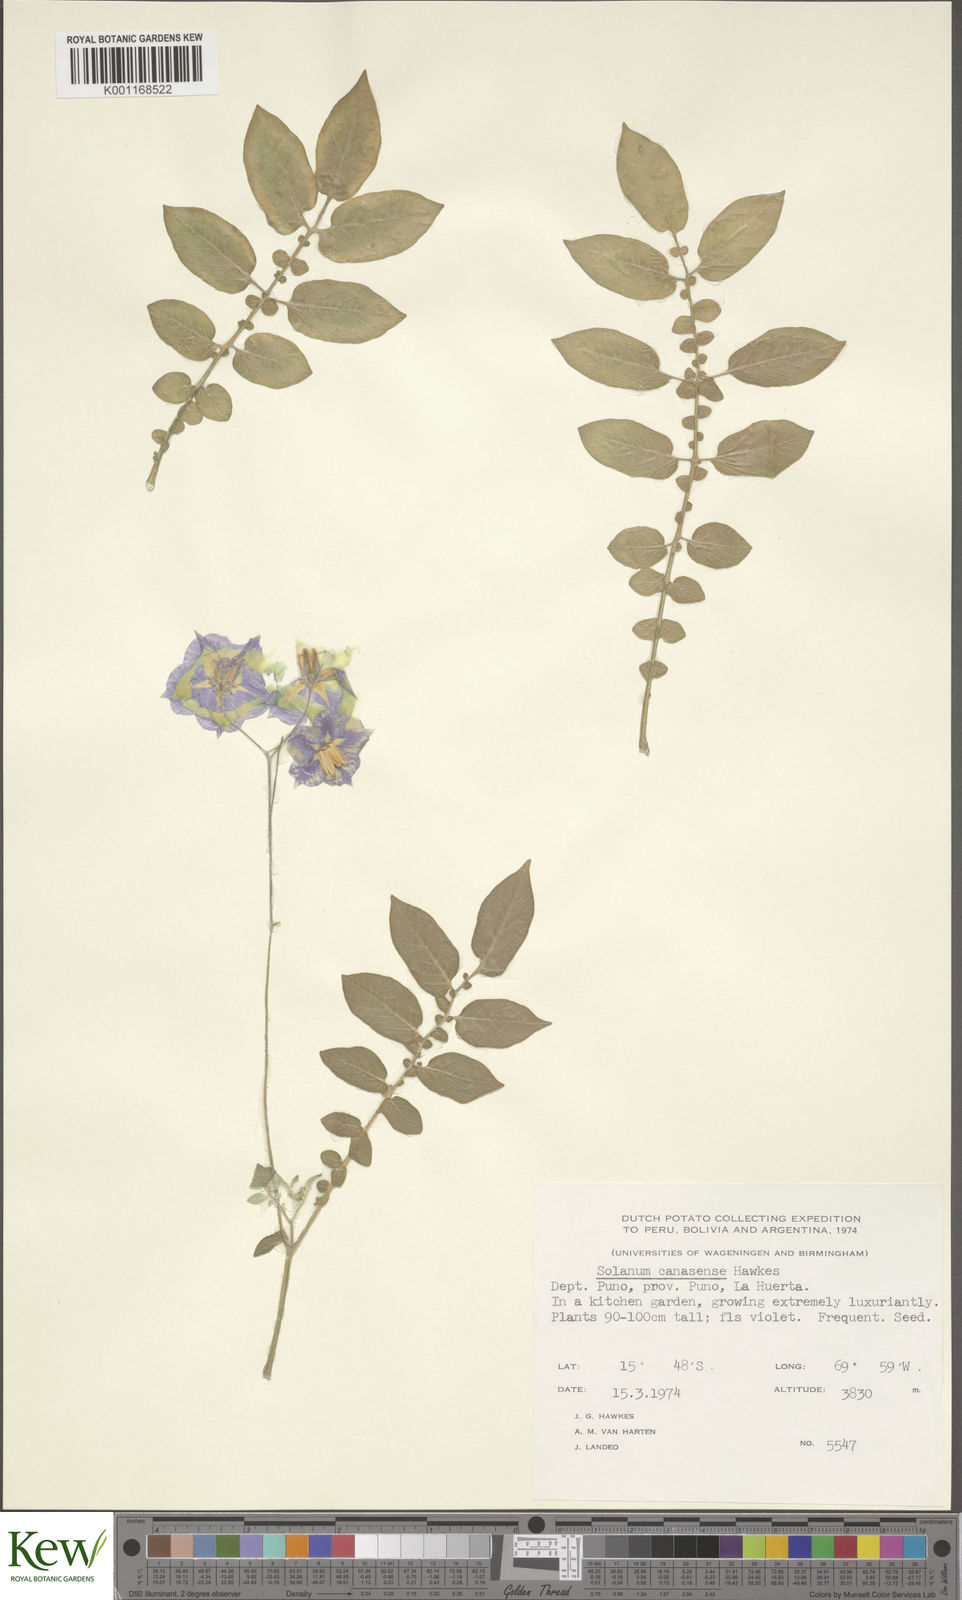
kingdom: Plantae
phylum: Tracheophyta
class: Magnoliopsida
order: Solanales
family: Solanaceae
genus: Solanum
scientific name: Solanum candolleanum
